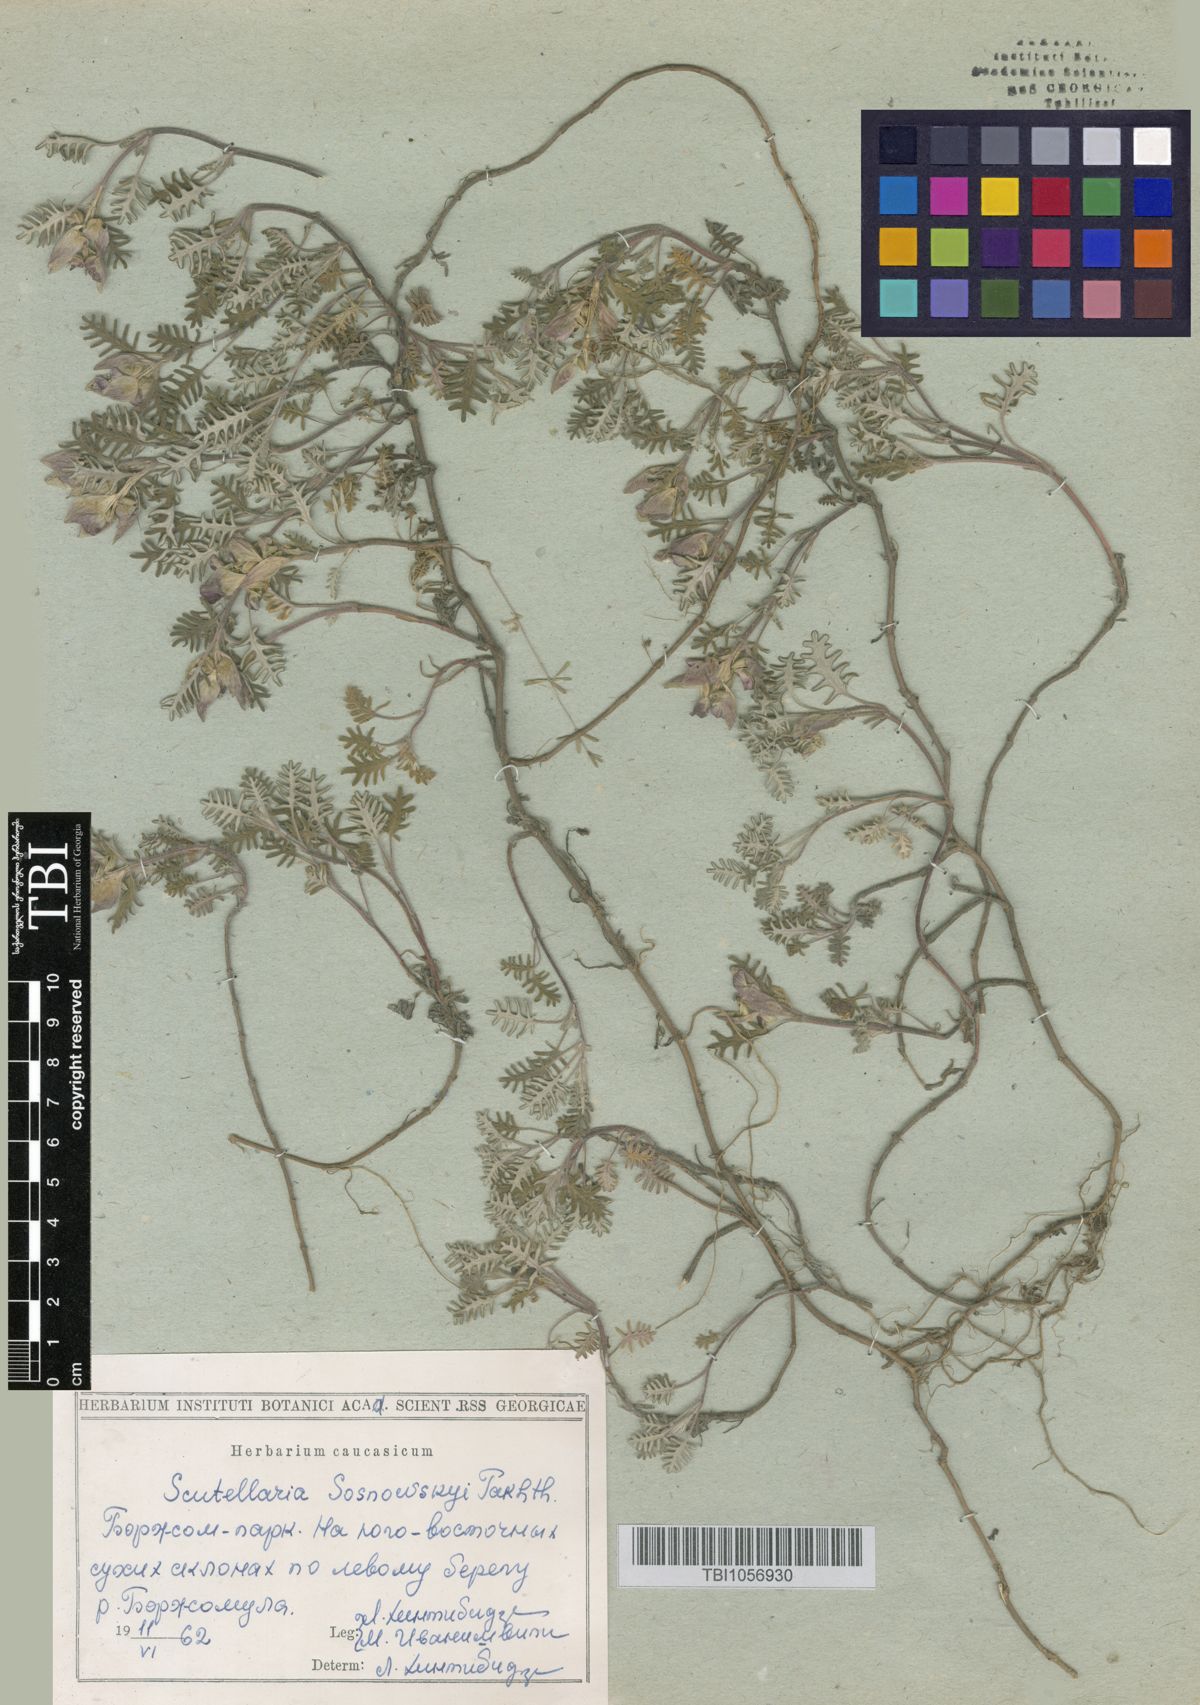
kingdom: Plantae
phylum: Tracheophyta
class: Magnoliopsida
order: Lamiales
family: Lamiaceae
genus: Scutellaria
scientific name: Scutellaria sosnowskyi
